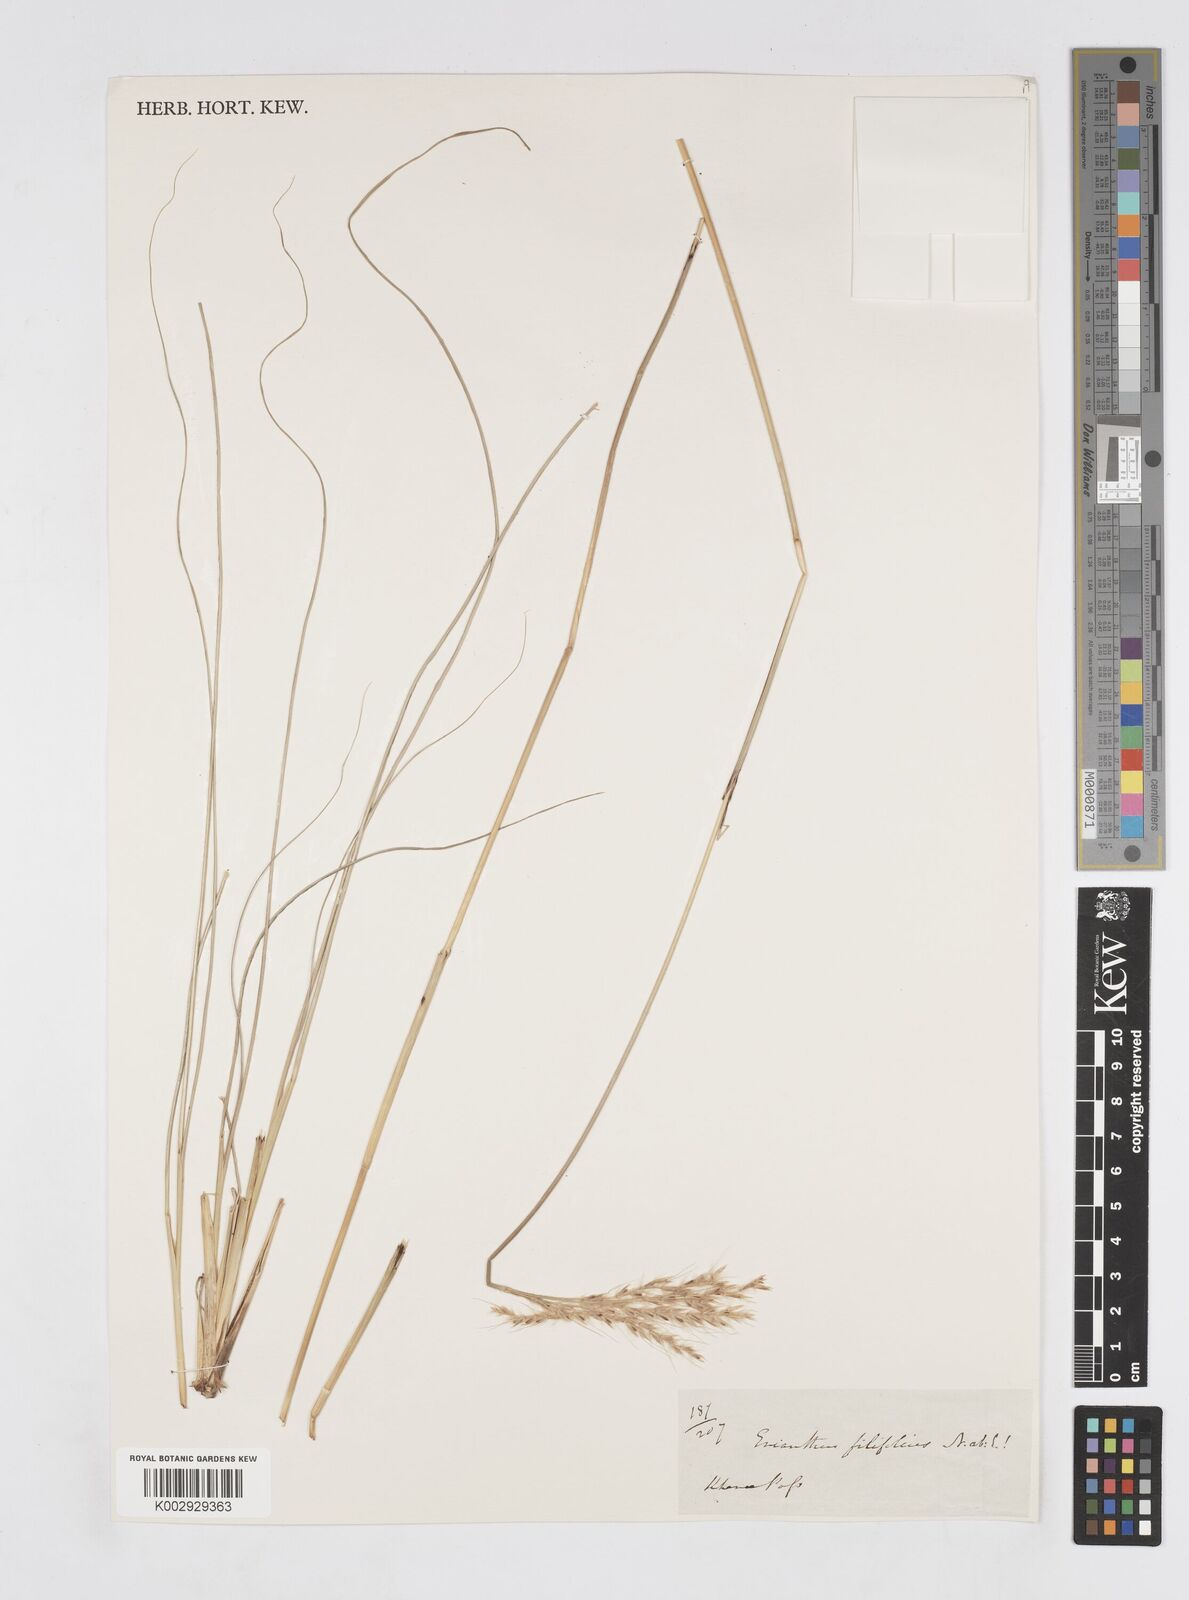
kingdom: Plantae
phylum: Tracheophyta
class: Liliopsida
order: Poales
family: Poaceae
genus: Saccharum
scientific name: Saccharum filifolium
